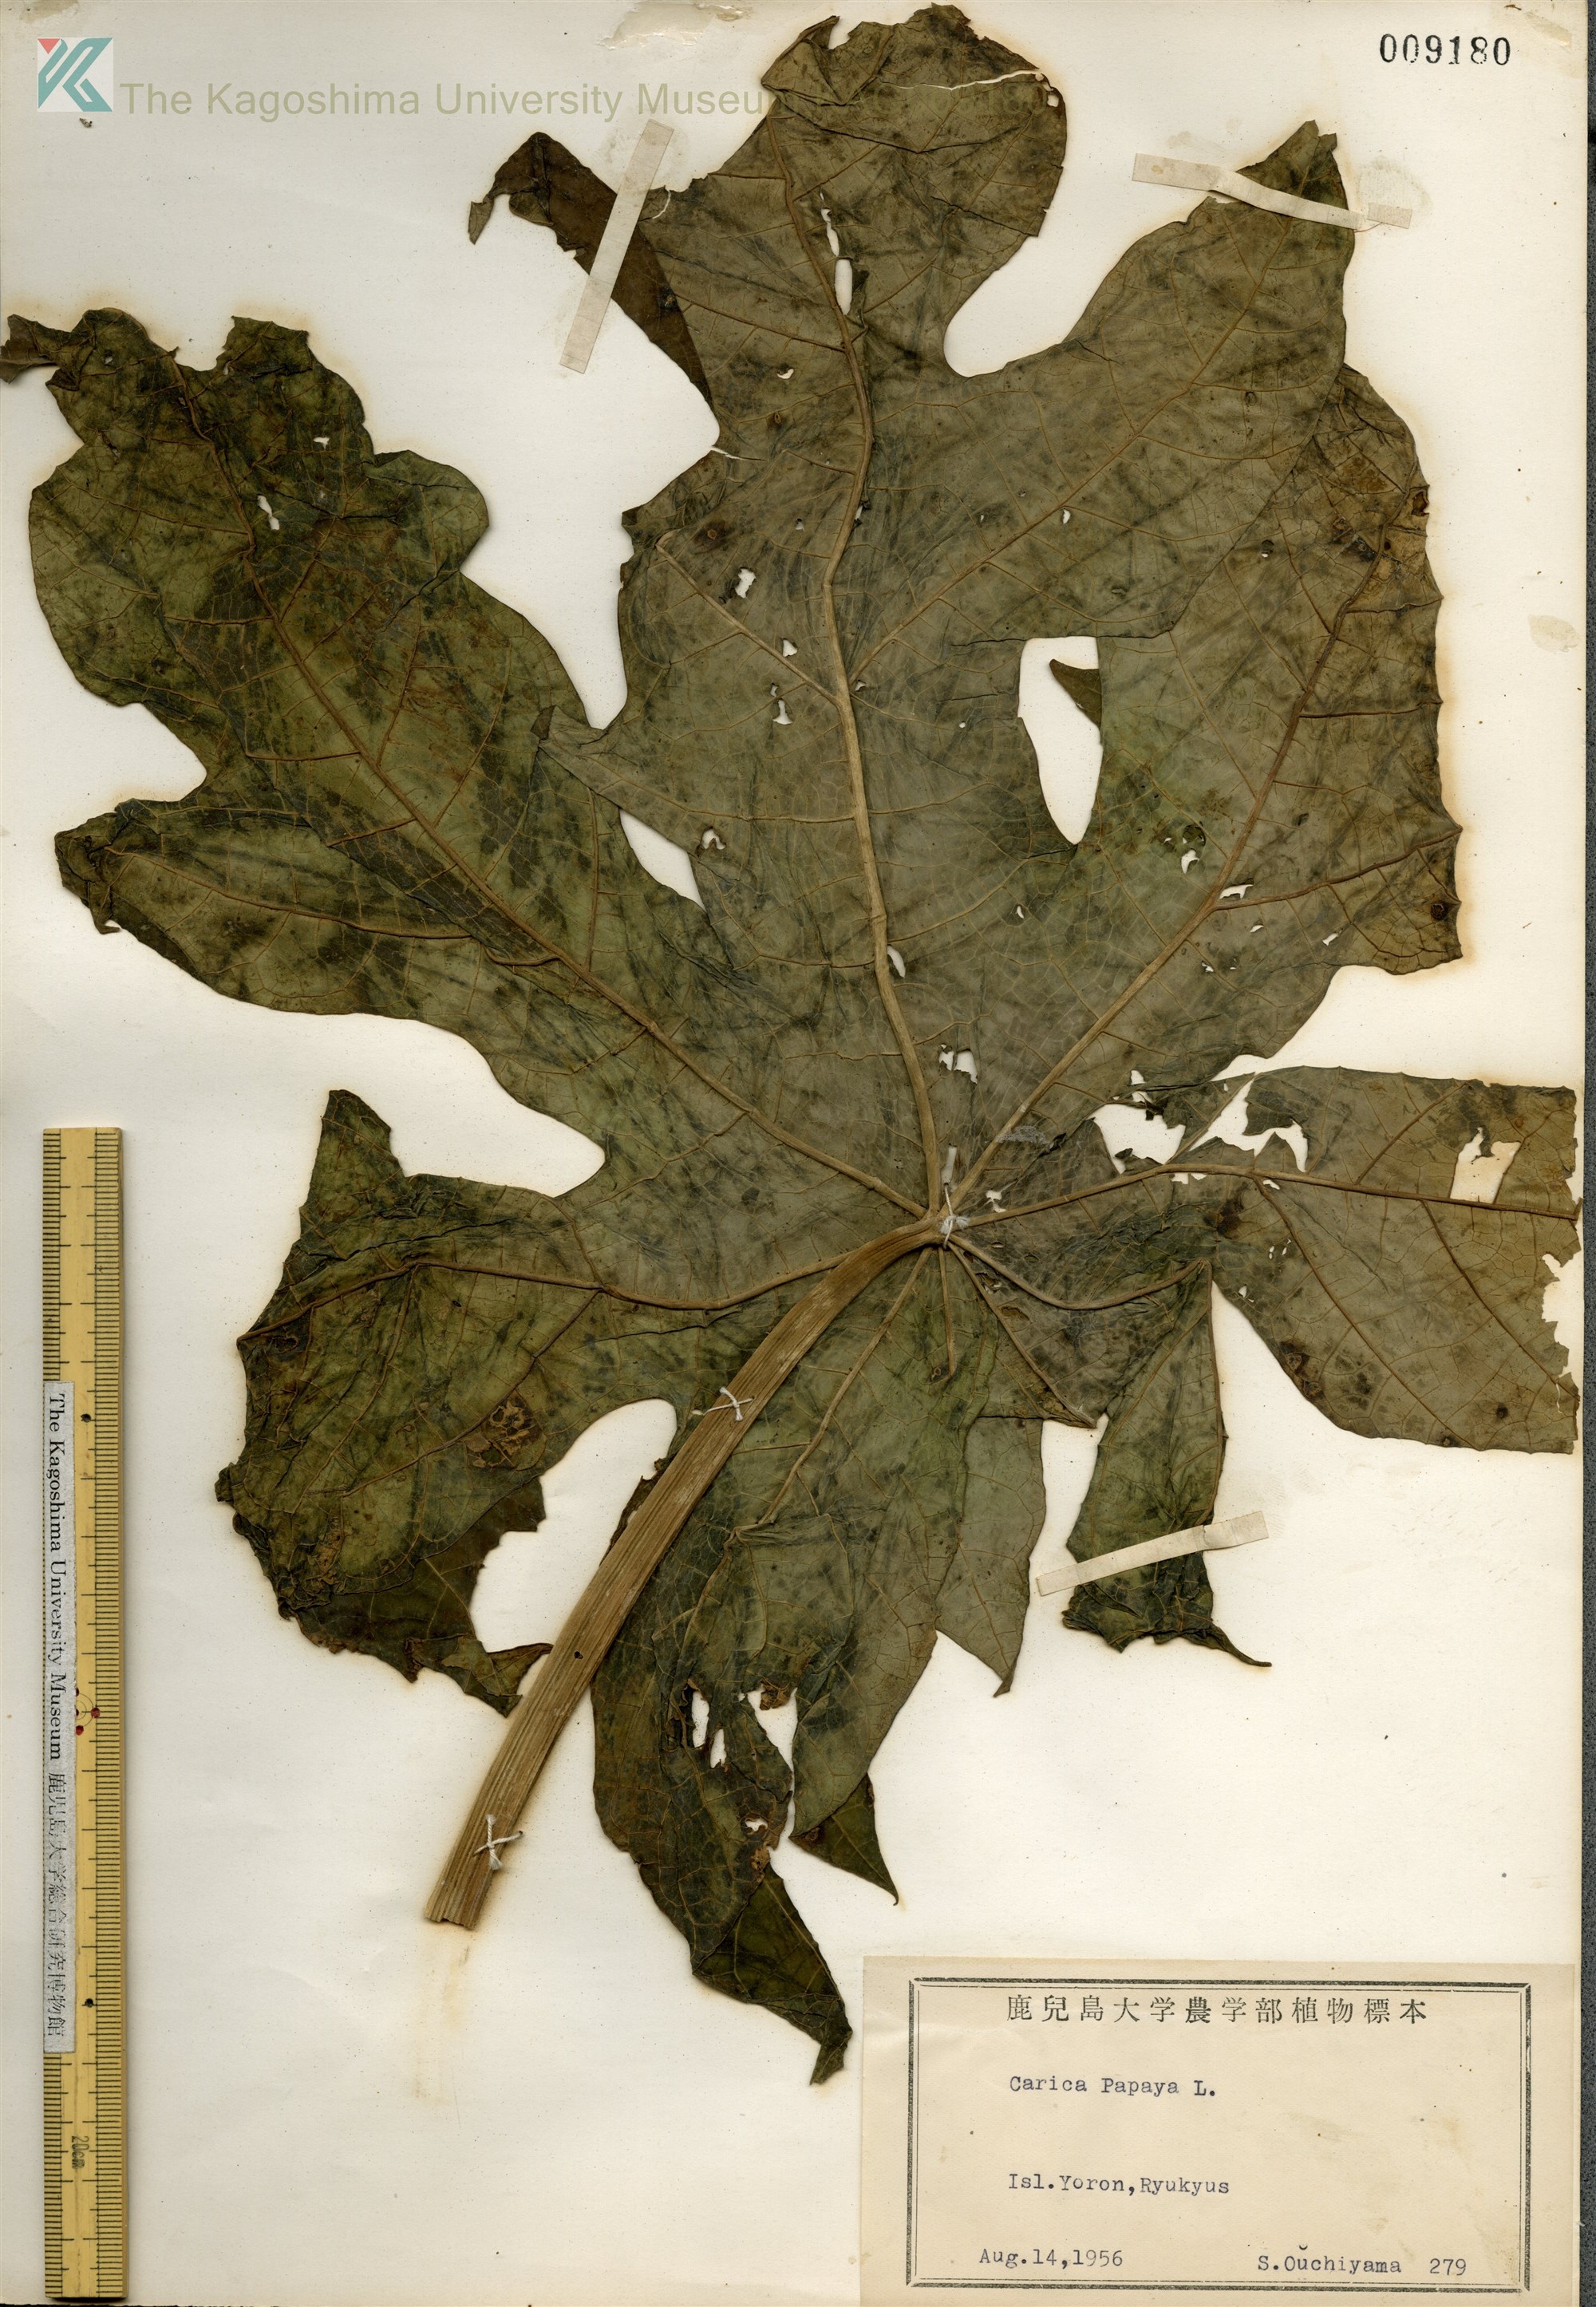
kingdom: Plantae
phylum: Tracheophyta
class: Magnoliopsida
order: Brassicales
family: Caricaceae
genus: Carica
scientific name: Carica papaya
